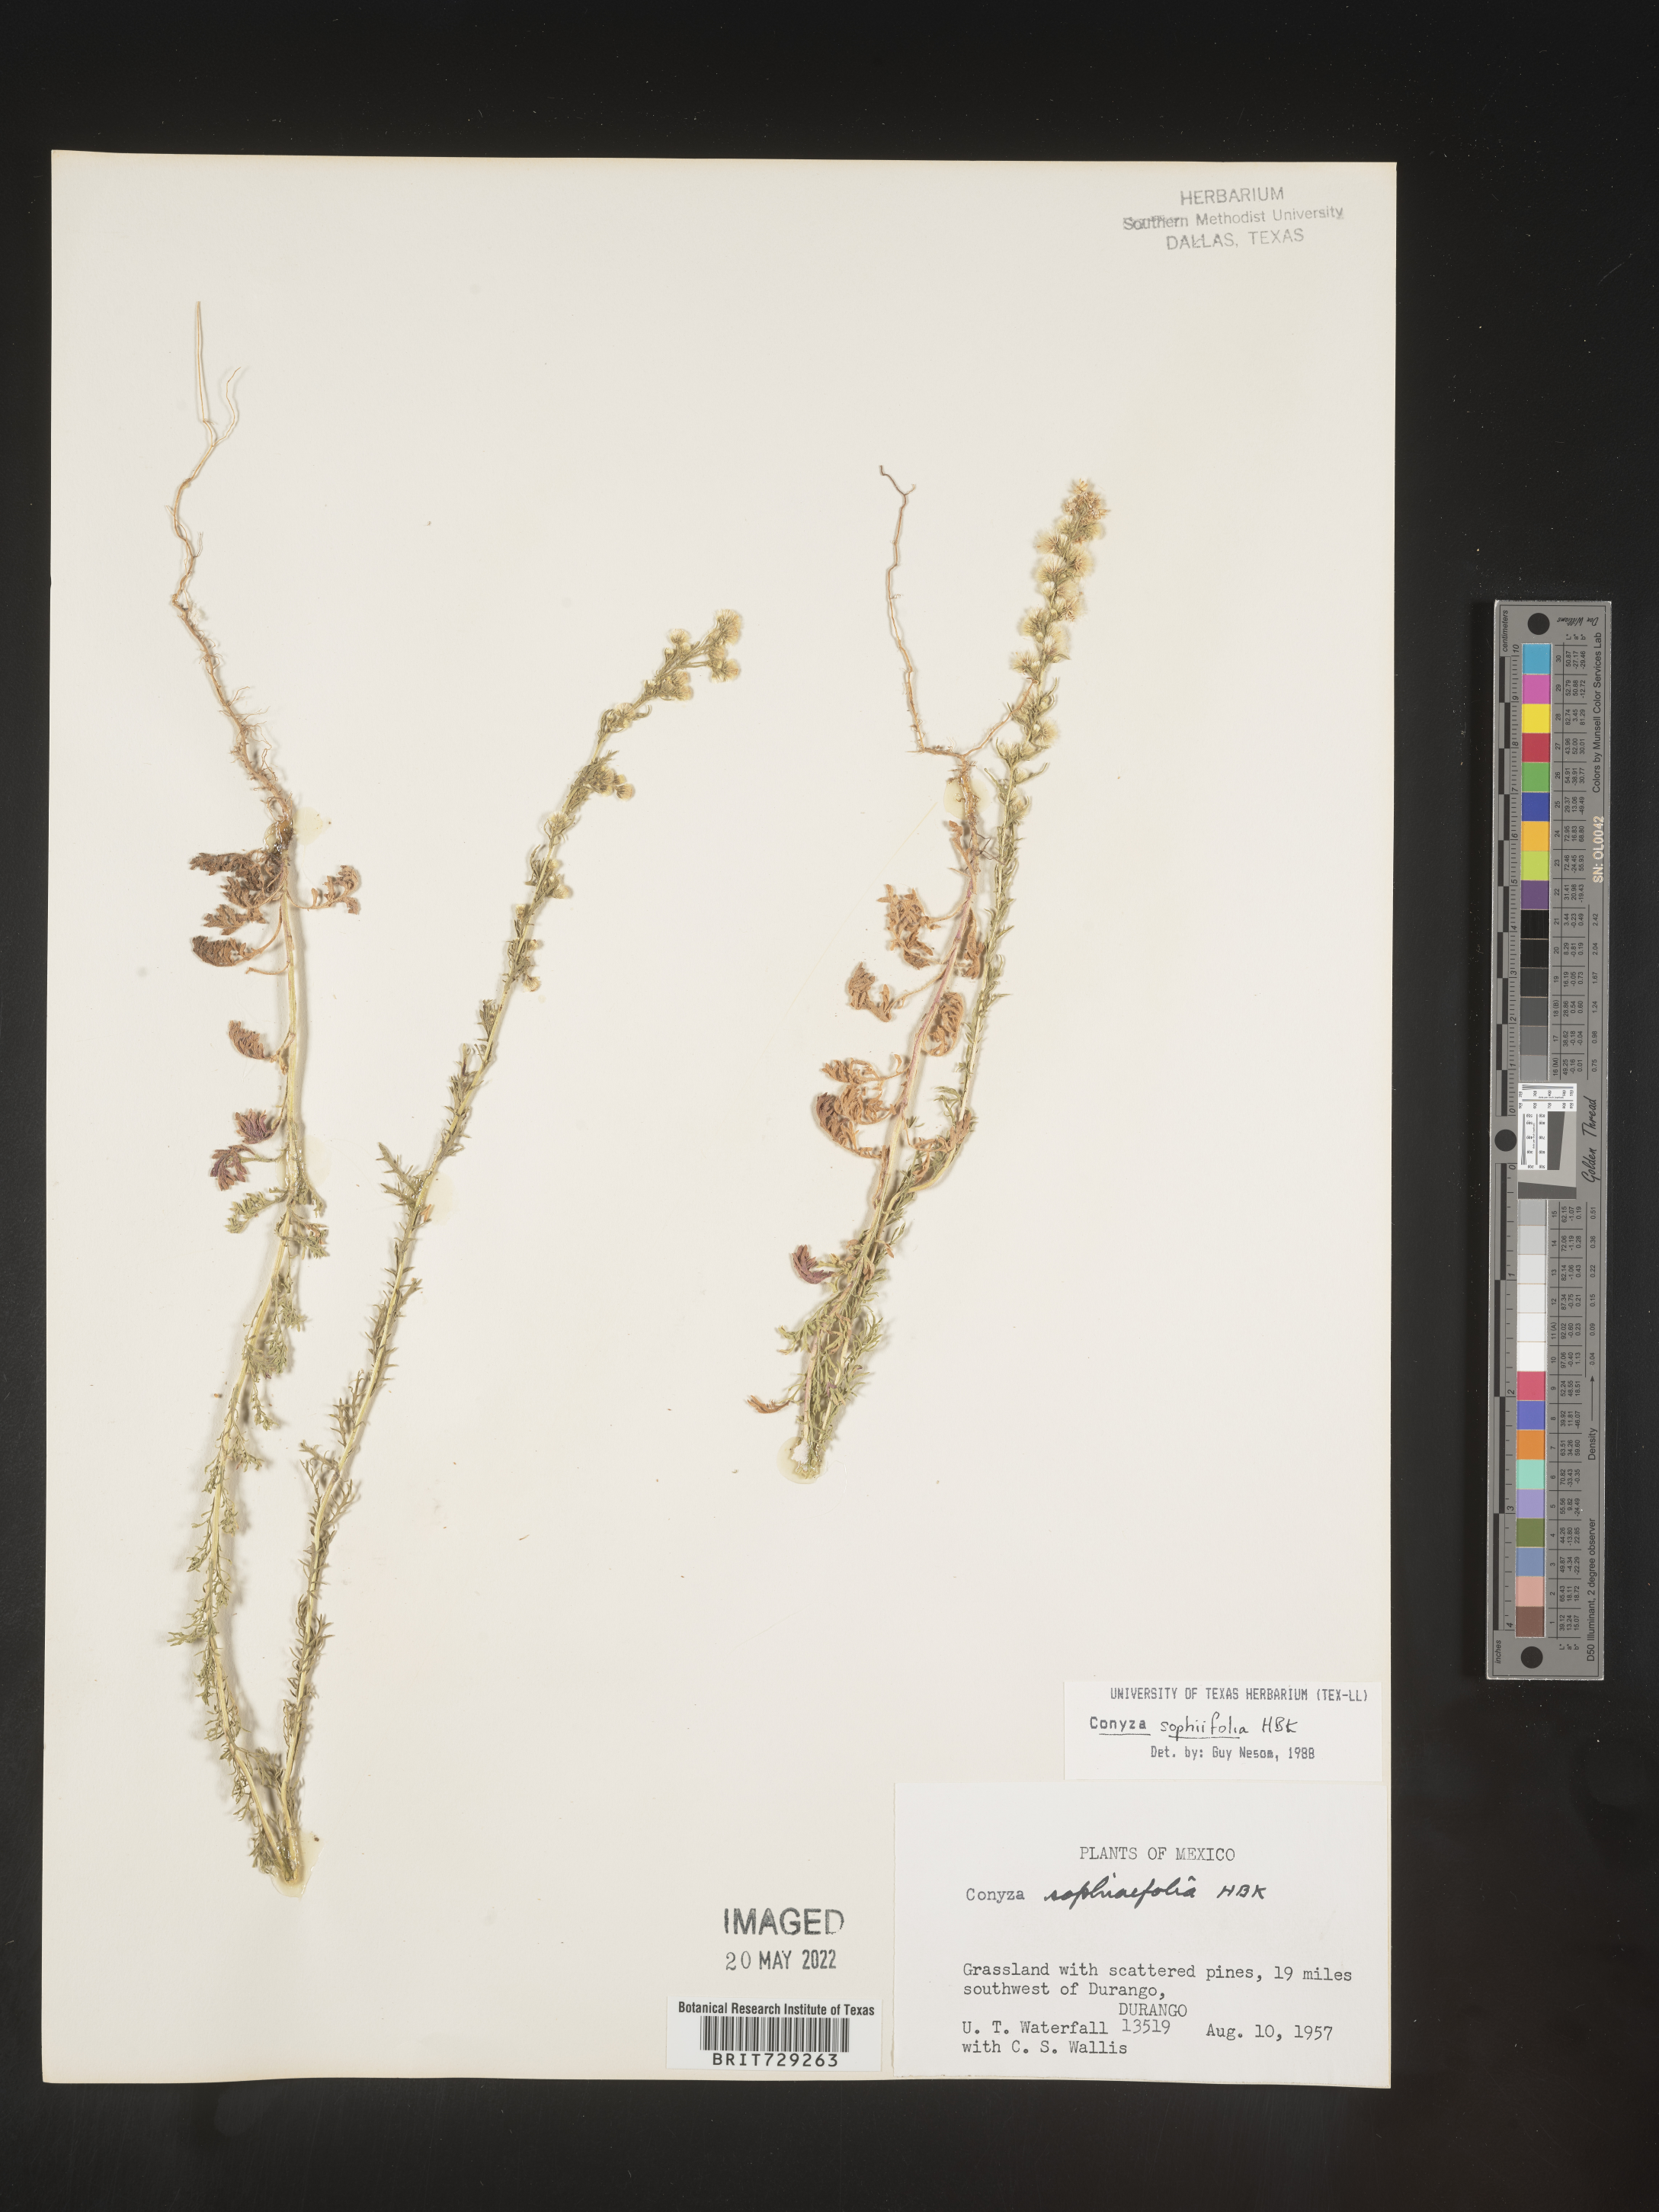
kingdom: Plantae
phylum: Tracheophyta
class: Magnoliopsida
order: Asterales
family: Asteraceae
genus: Laennecia
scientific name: Laennecia
